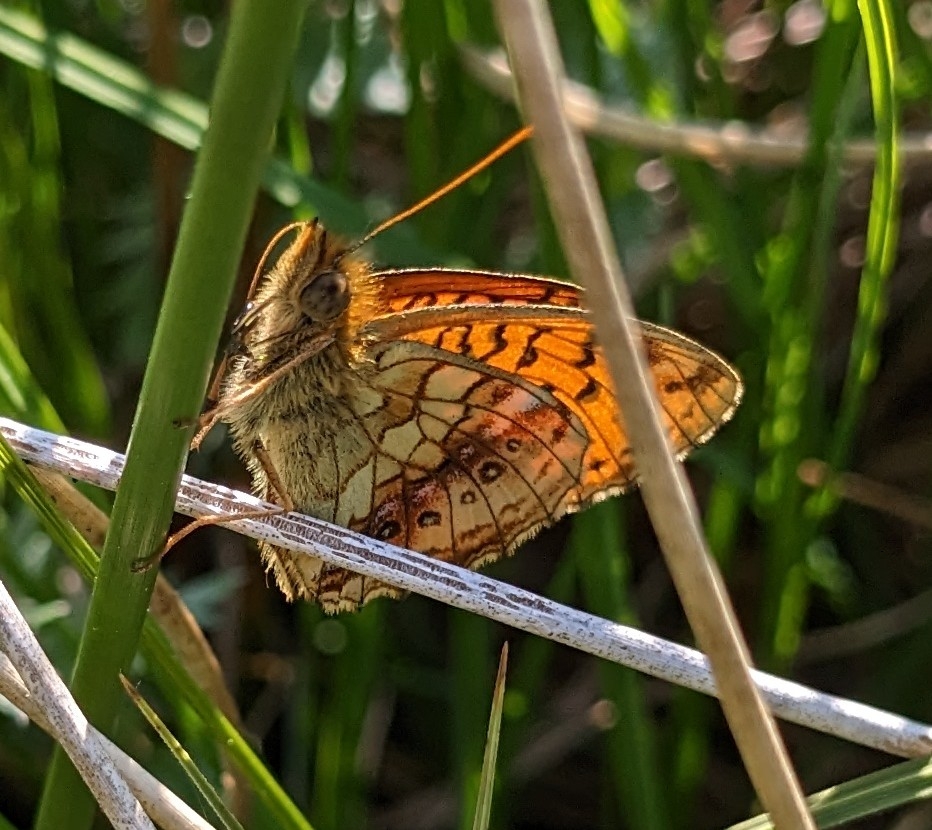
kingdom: Animalia
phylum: Arthropoda
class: Insecta
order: Lepidoptera
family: Nymphalidae
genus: Brenthis
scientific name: Brenthis ino
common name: Engperlemorsommerfugl
